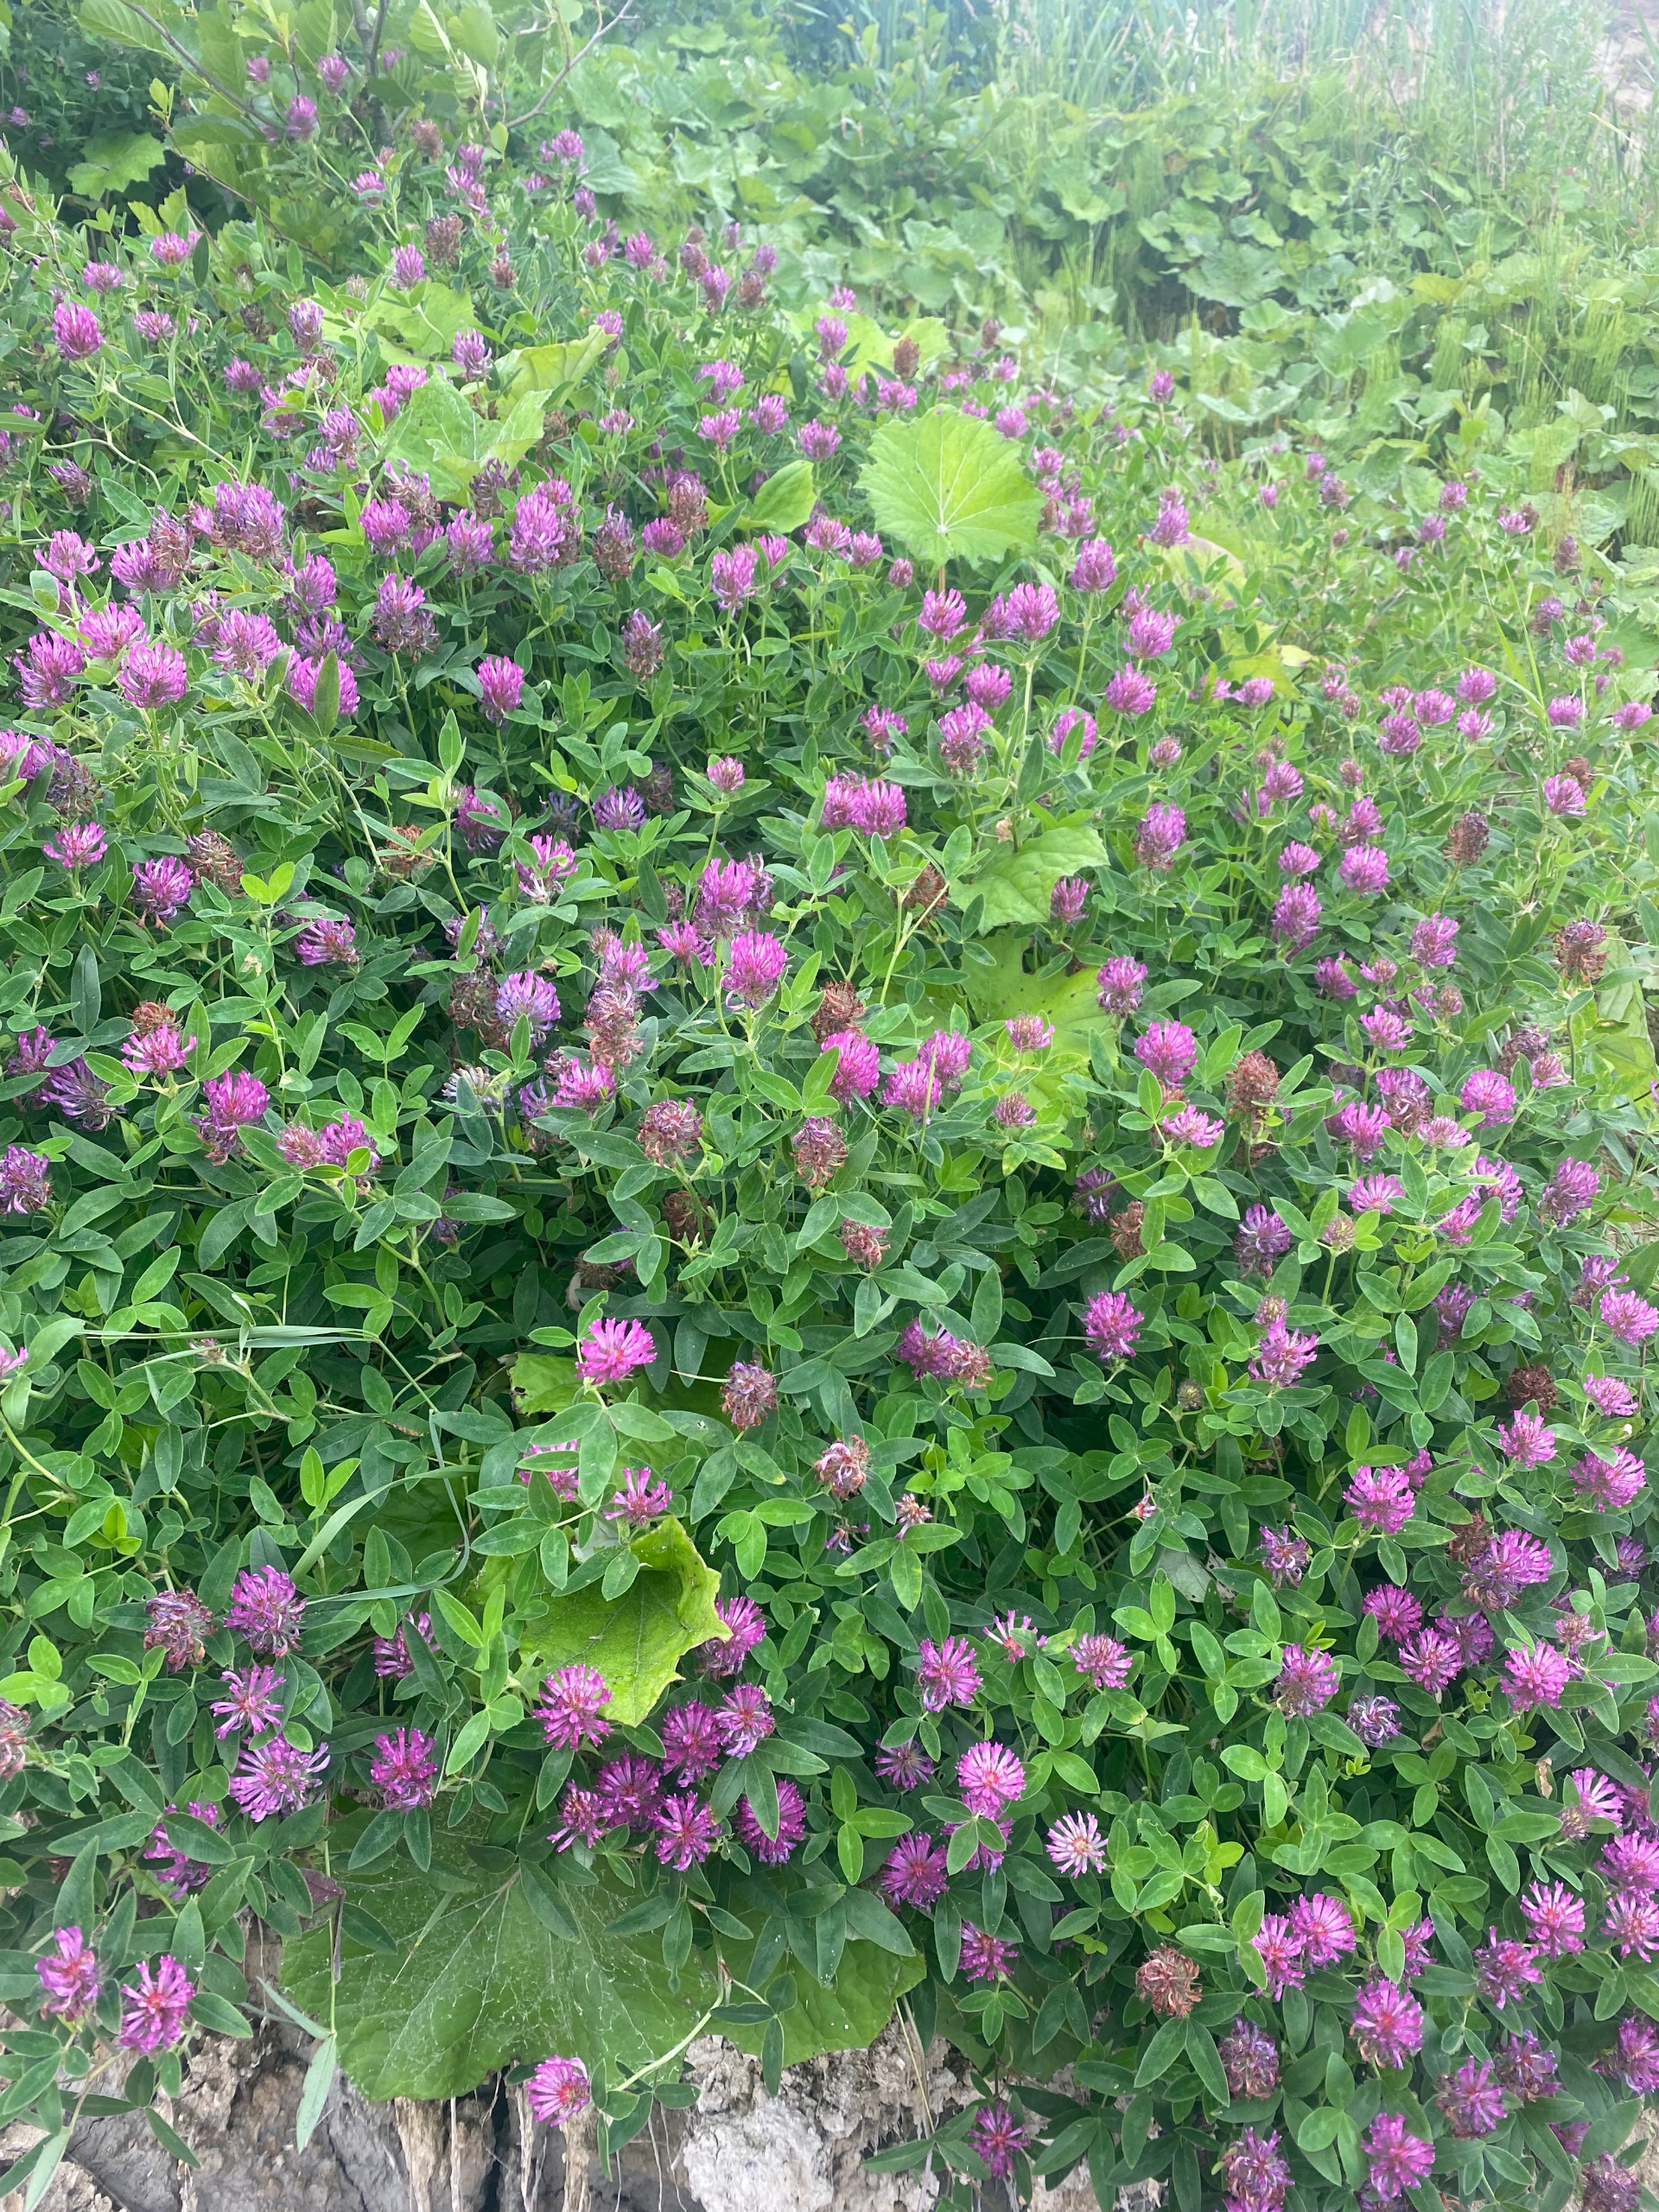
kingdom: Plantae
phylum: Tracheophyta
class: Magnoliopsida
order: Fabales
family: Fabaceae
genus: Trifolium
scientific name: Trifolium medium
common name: Bugtet kløver
